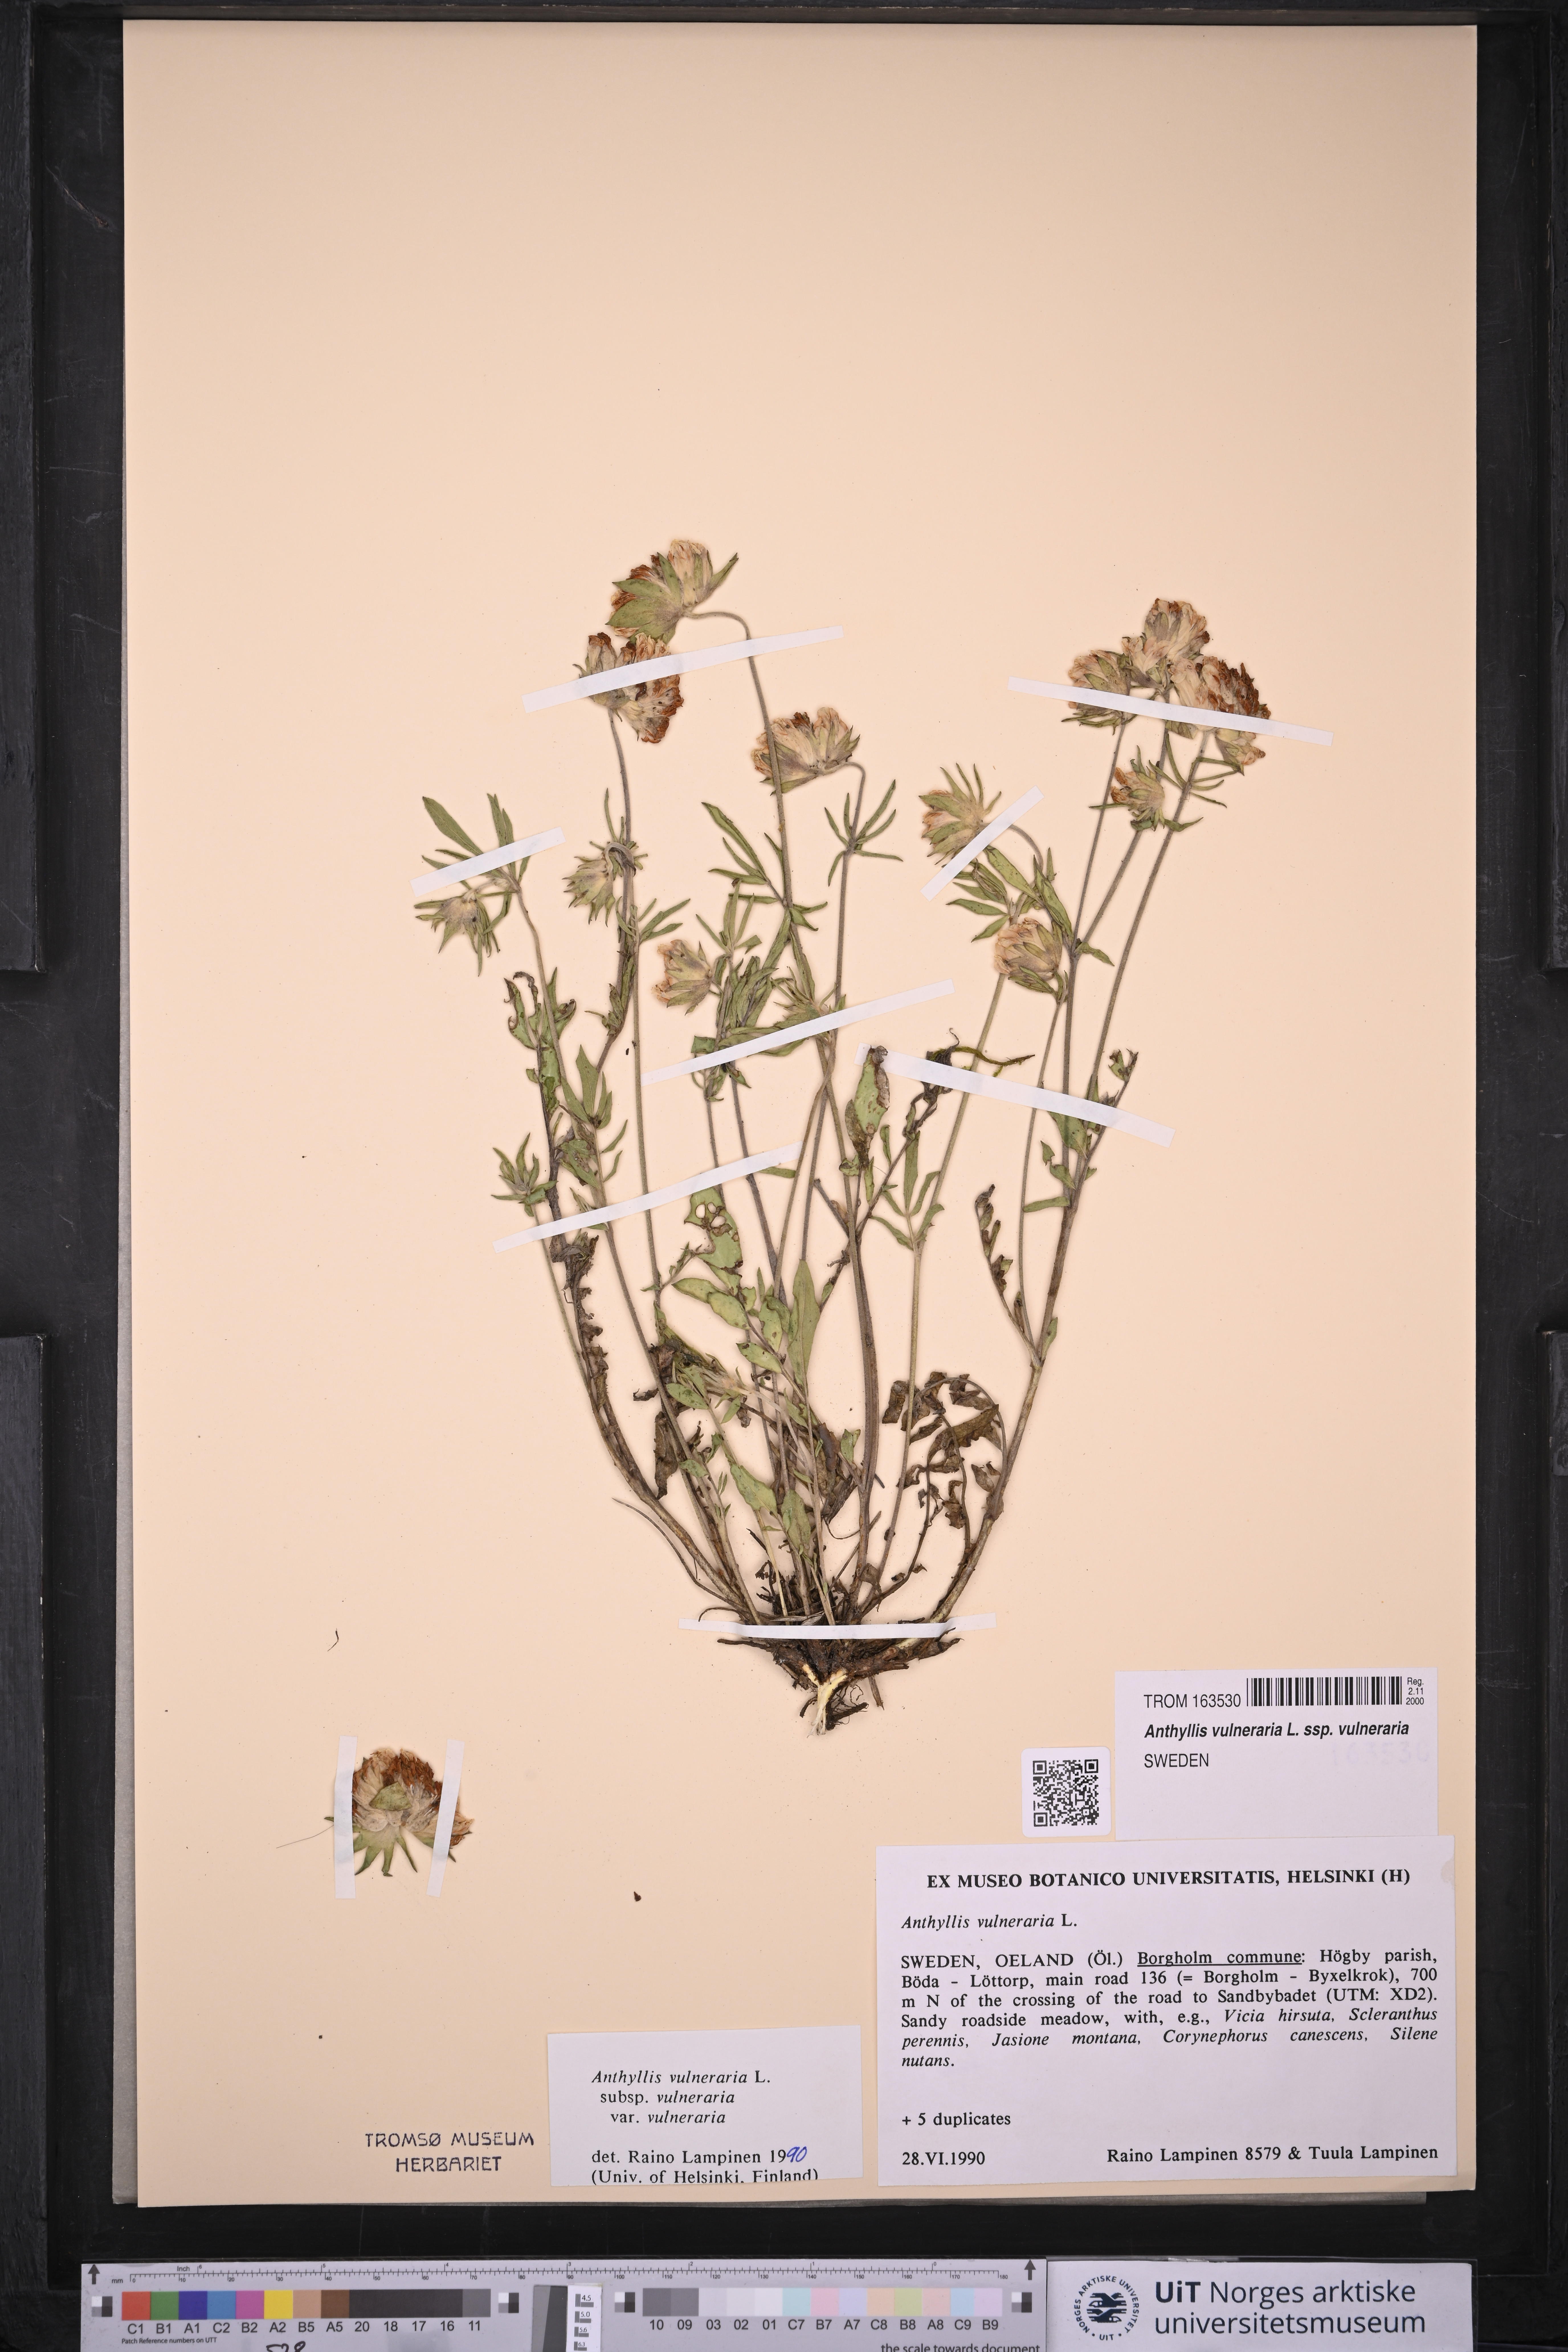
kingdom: Plantae
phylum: Tracheophyta
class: Magnoliopsida
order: Fabales
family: Fabaceae
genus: Anthyllis
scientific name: Anthyllis vulneraria
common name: Kidney vetch
